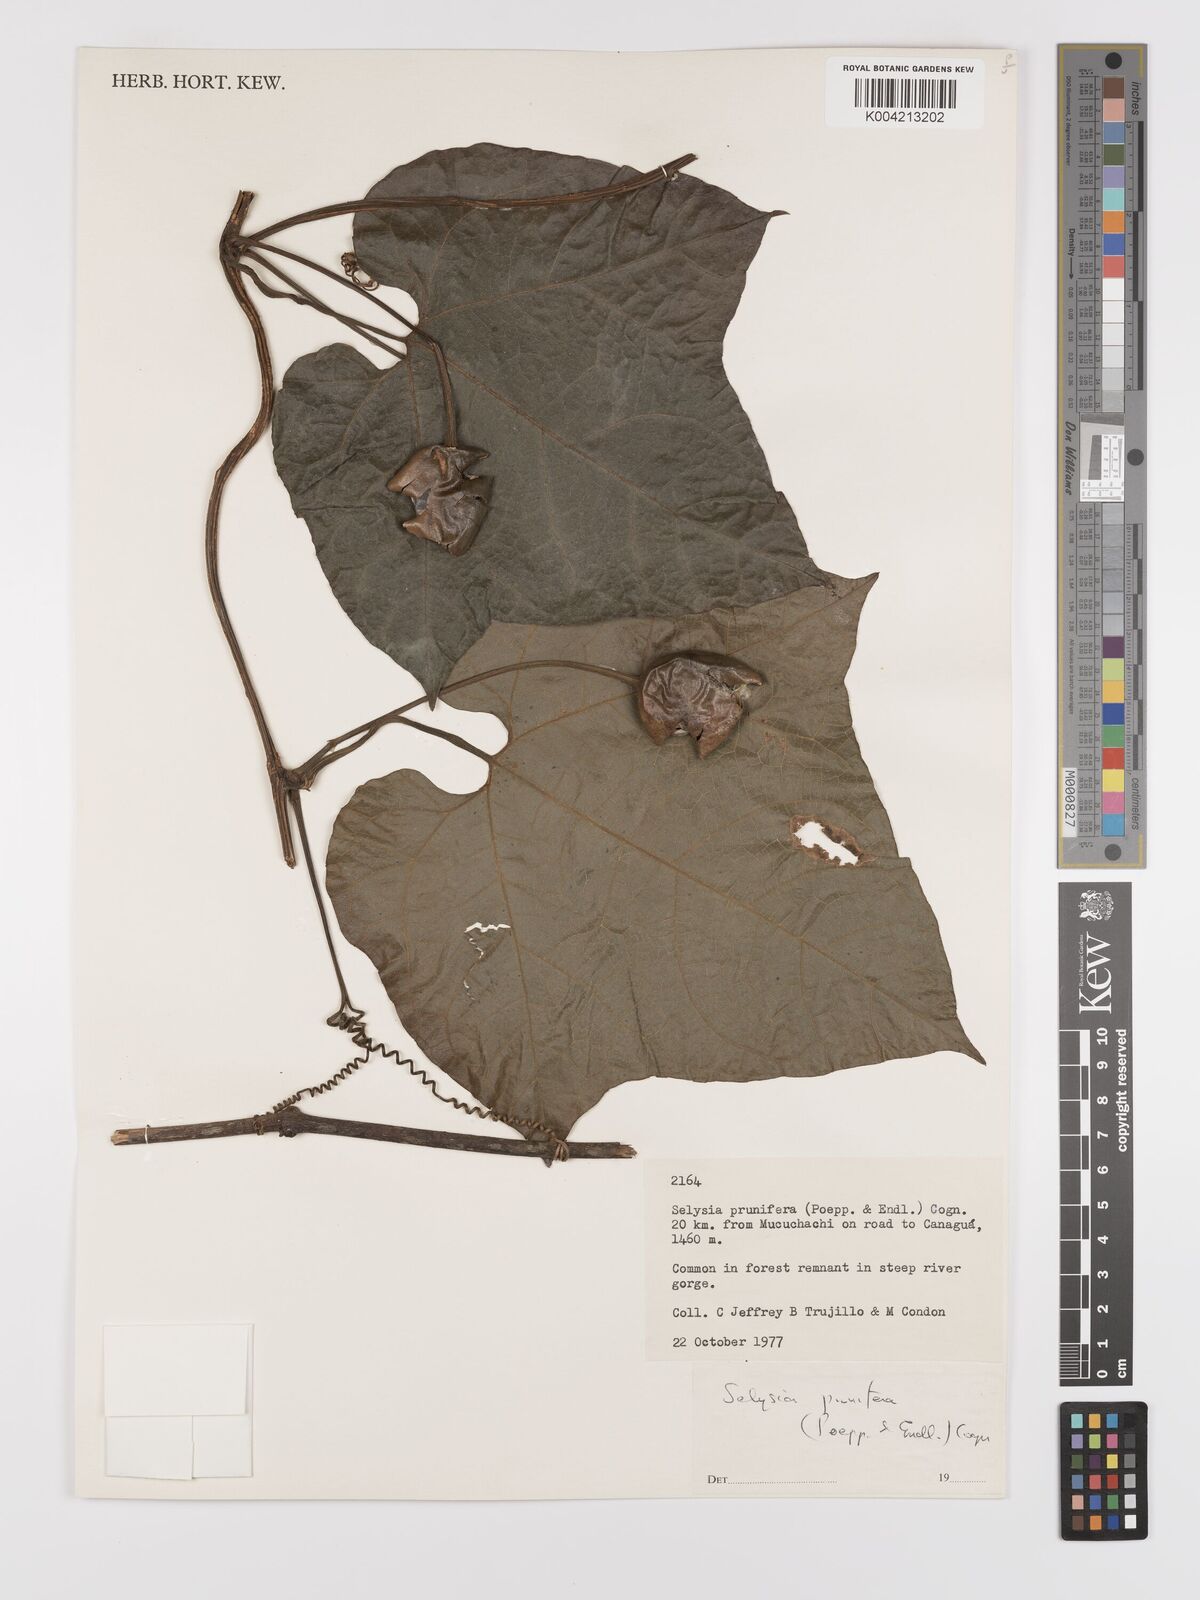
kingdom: Plantae
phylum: Tracheophyta
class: Magnoliopsida
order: Cucurbitales
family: Cucurbitaceae
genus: Cayaponia
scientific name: Cayaponia prunifera
